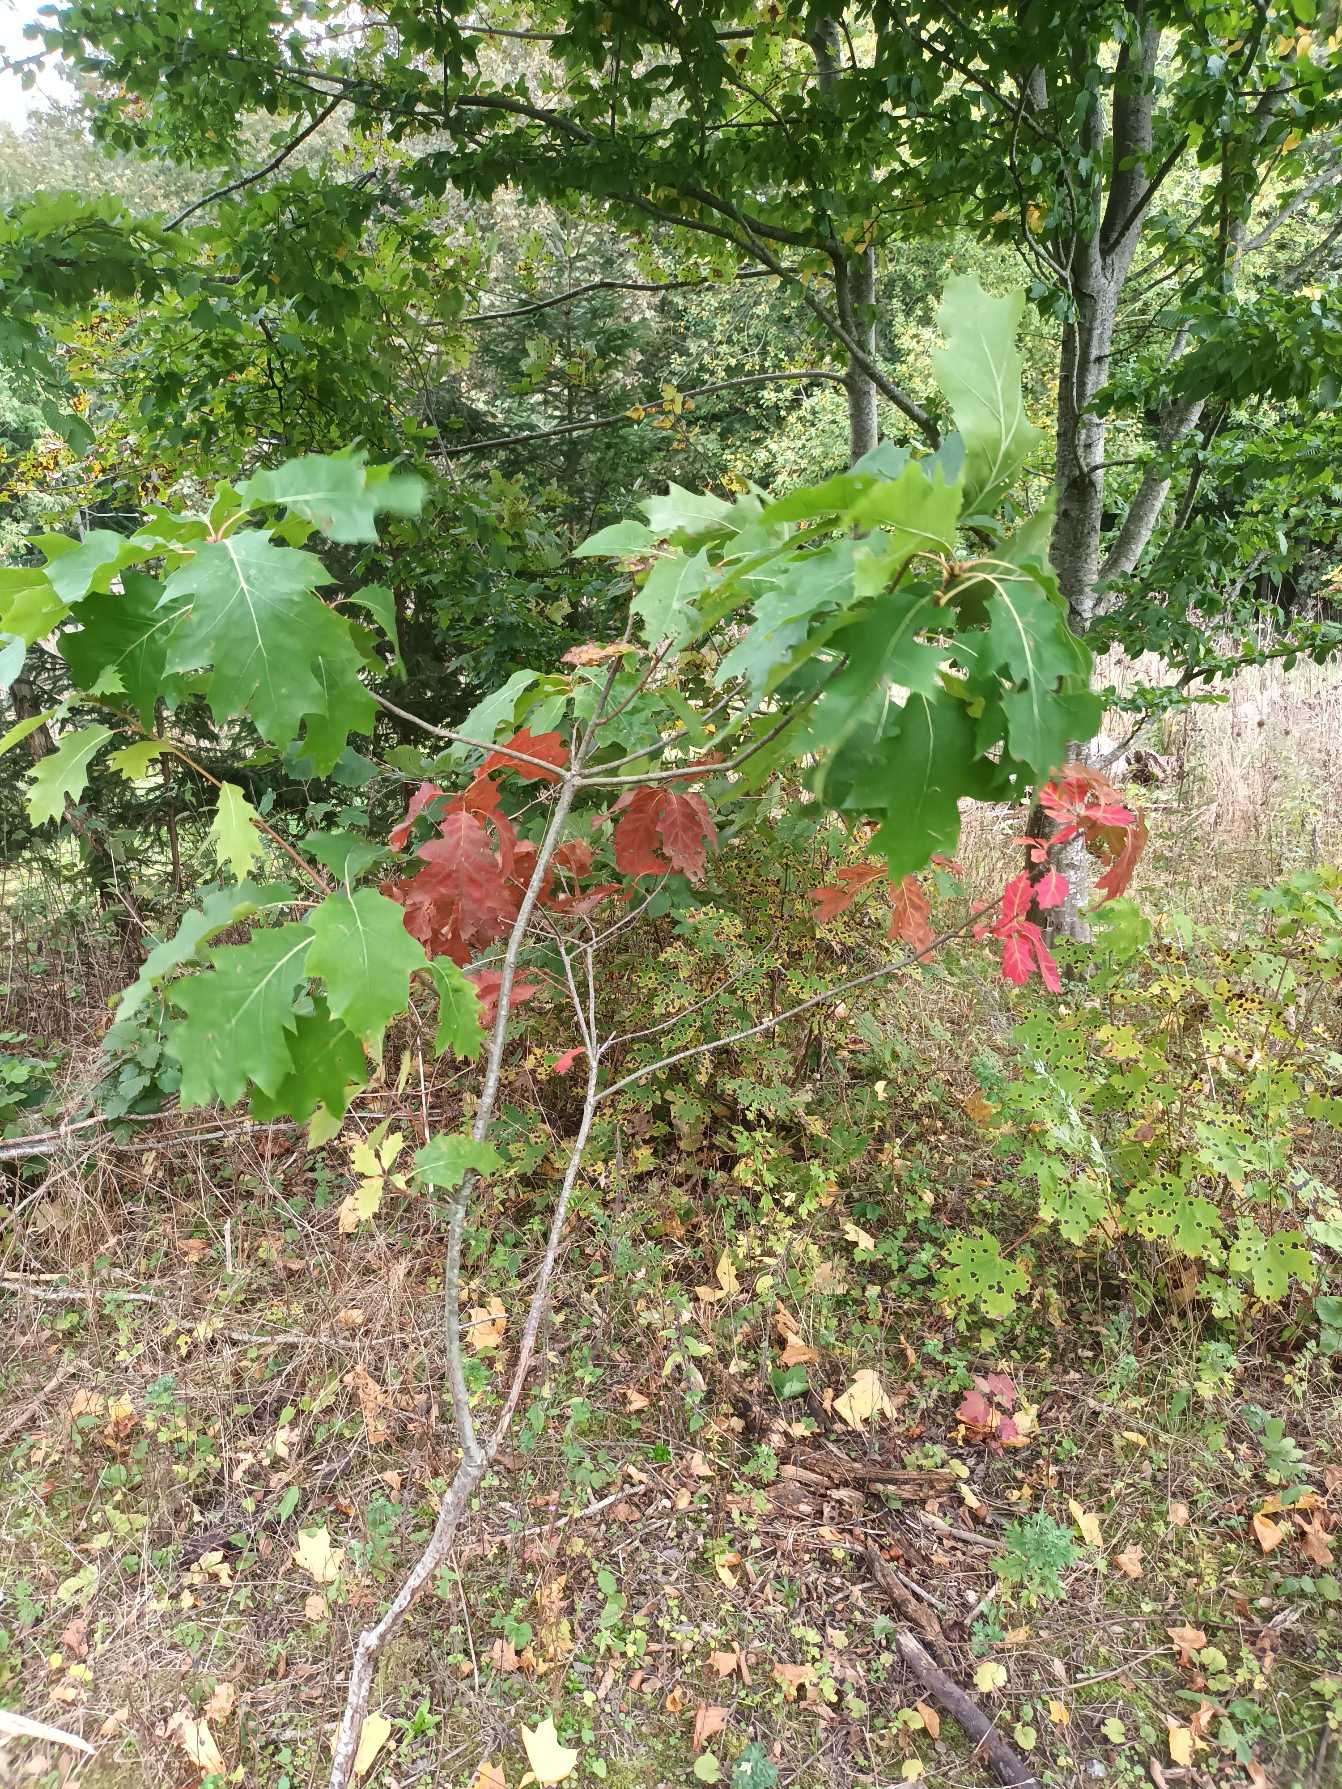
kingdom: Plantae
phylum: Tracheophyta
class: Magnoliopsida
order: Fagales
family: Fagaceae
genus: Quercus
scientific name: Quercus rubra
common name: Rød-eg
